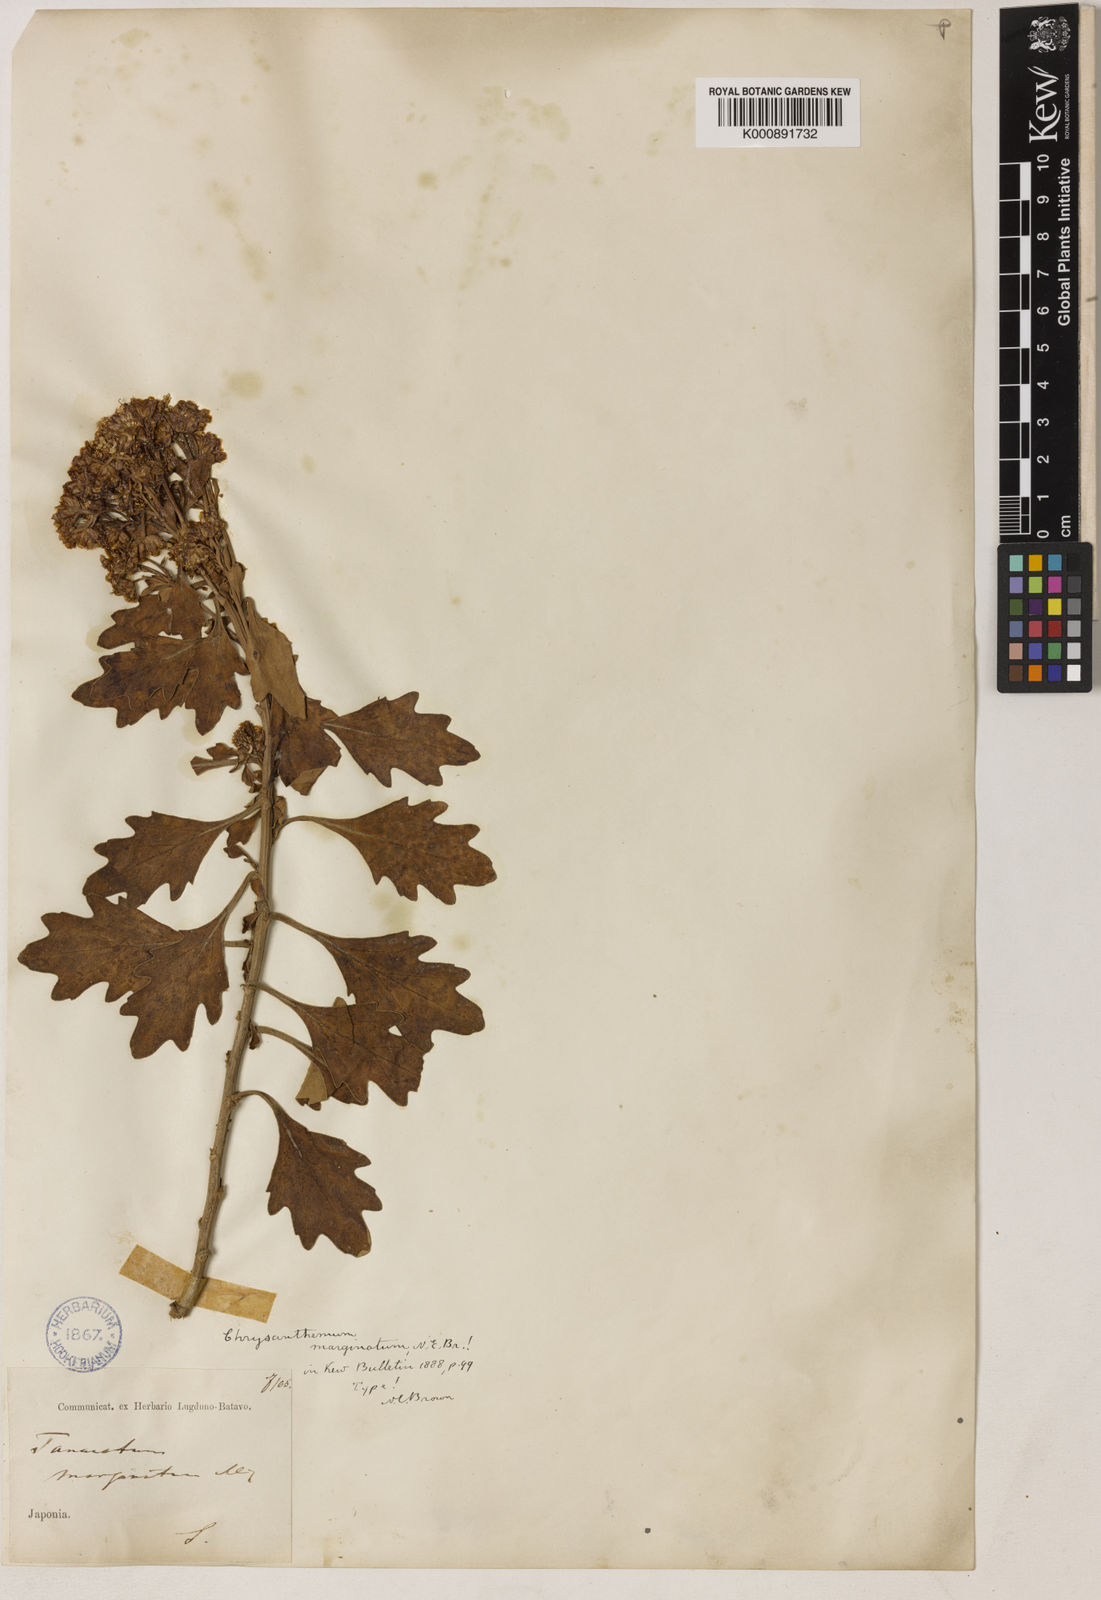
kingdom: Plantae
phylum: Tracheophyta
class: Magnoliopsida
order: Asterales
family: Asteraceae
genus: Ajania
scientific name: Ajania pacifica
